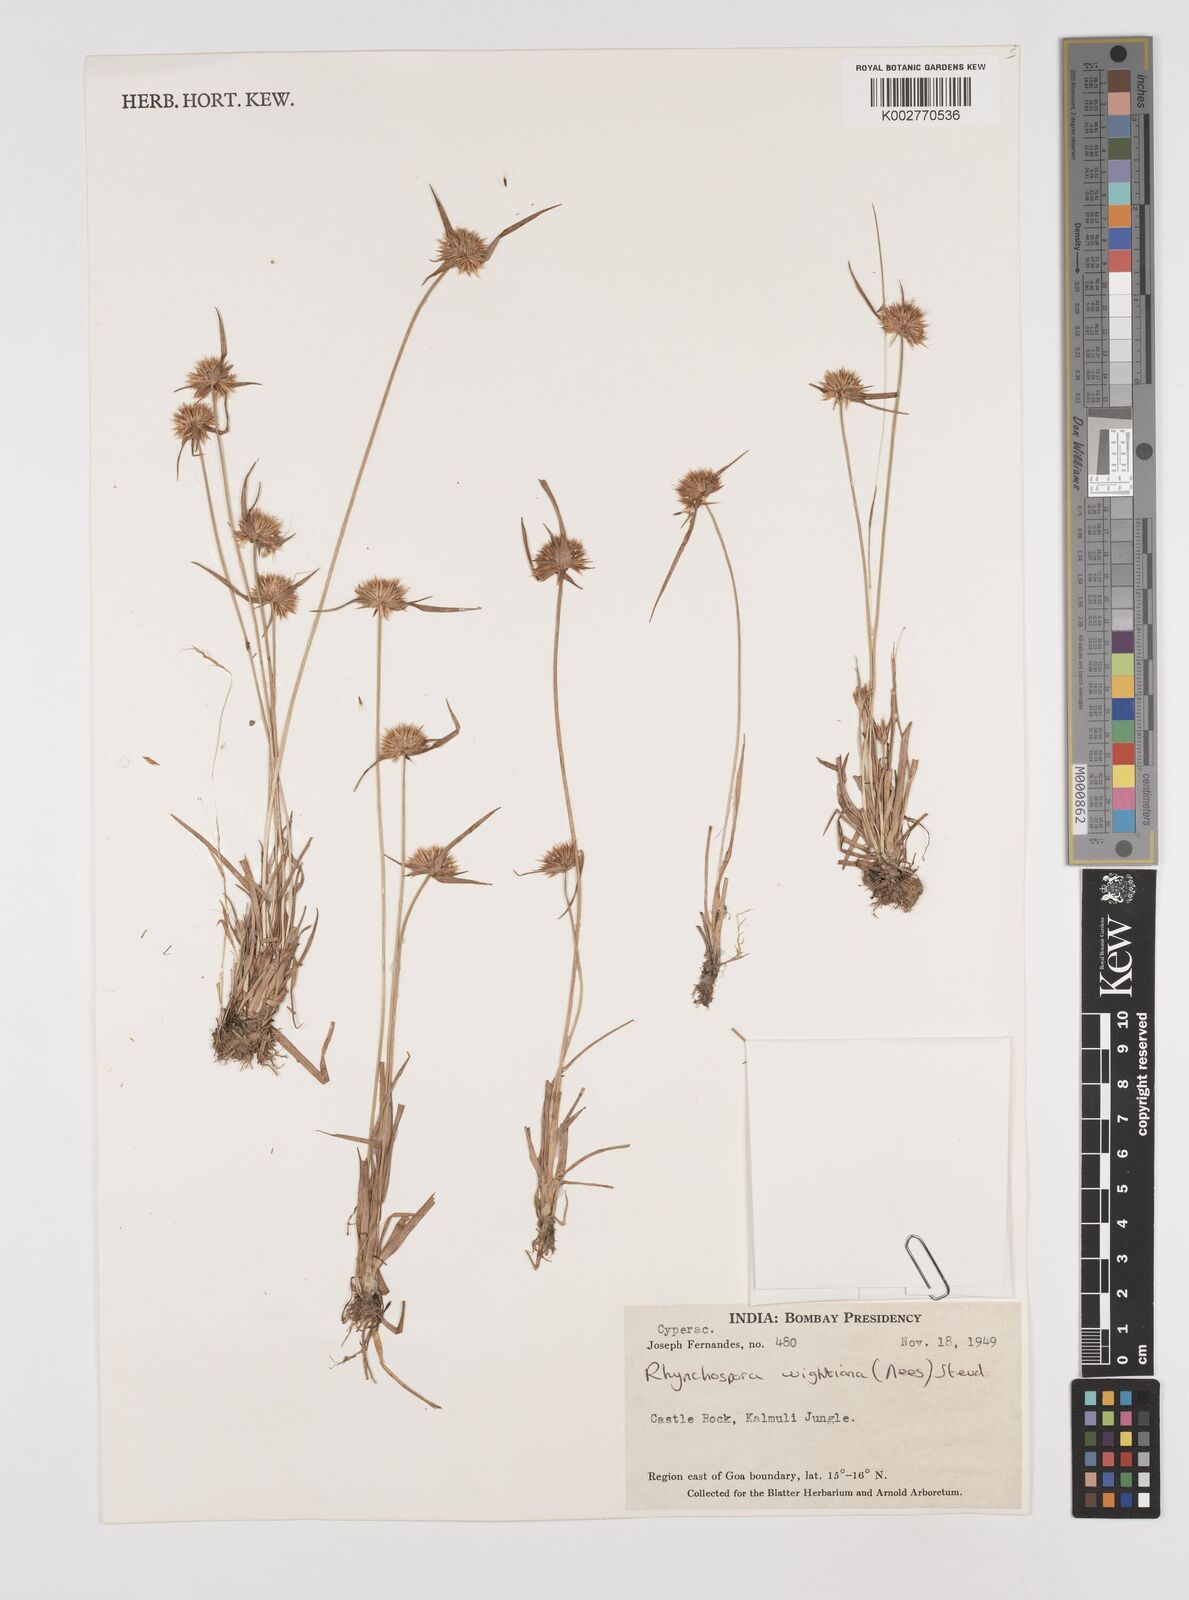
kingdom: Plantae
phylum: Tracheophyta
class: Liliopsida
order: Poales
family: Cyperaceae
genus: Rhynchospora
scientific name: Rhynchospora wightiana
